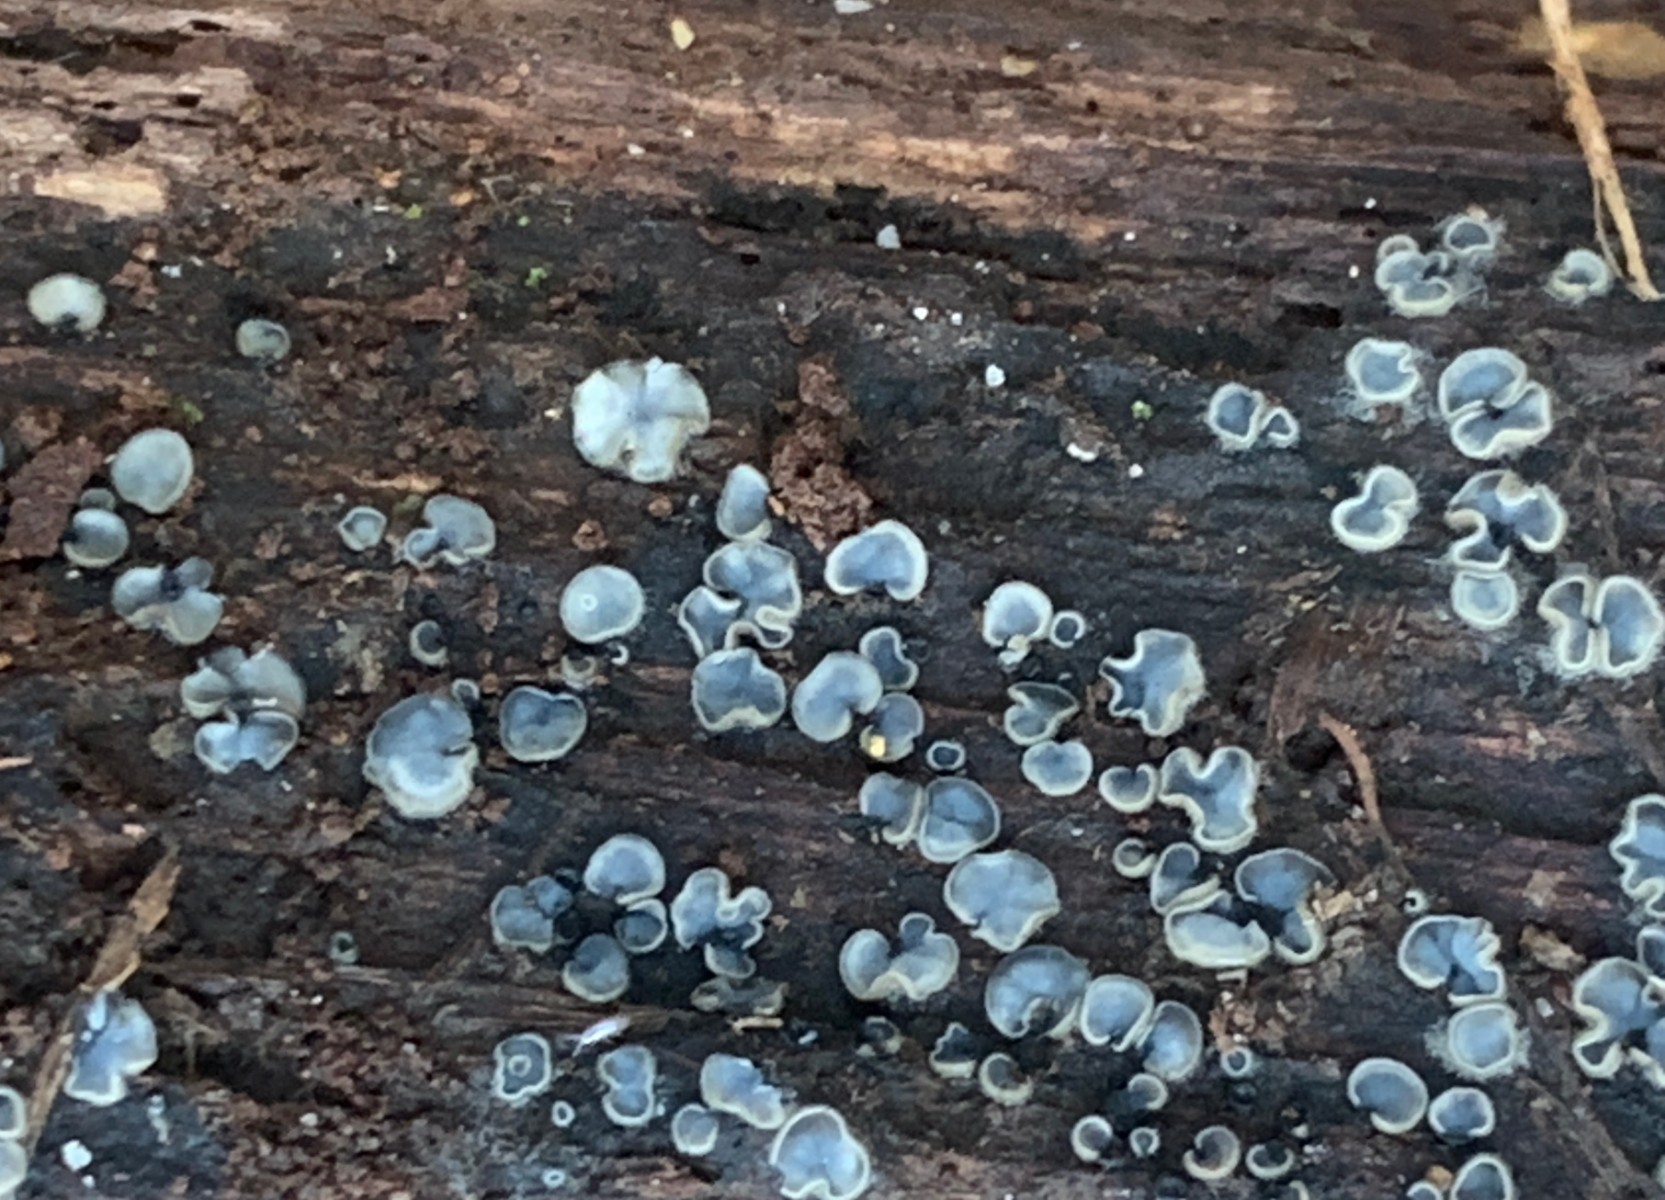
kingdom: Fungi
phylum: Ascomycota
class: Leotiomycetes
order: Helotiales
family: Mollisiaceae
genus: Mollisia
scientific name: Mollisia
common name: gråskive
